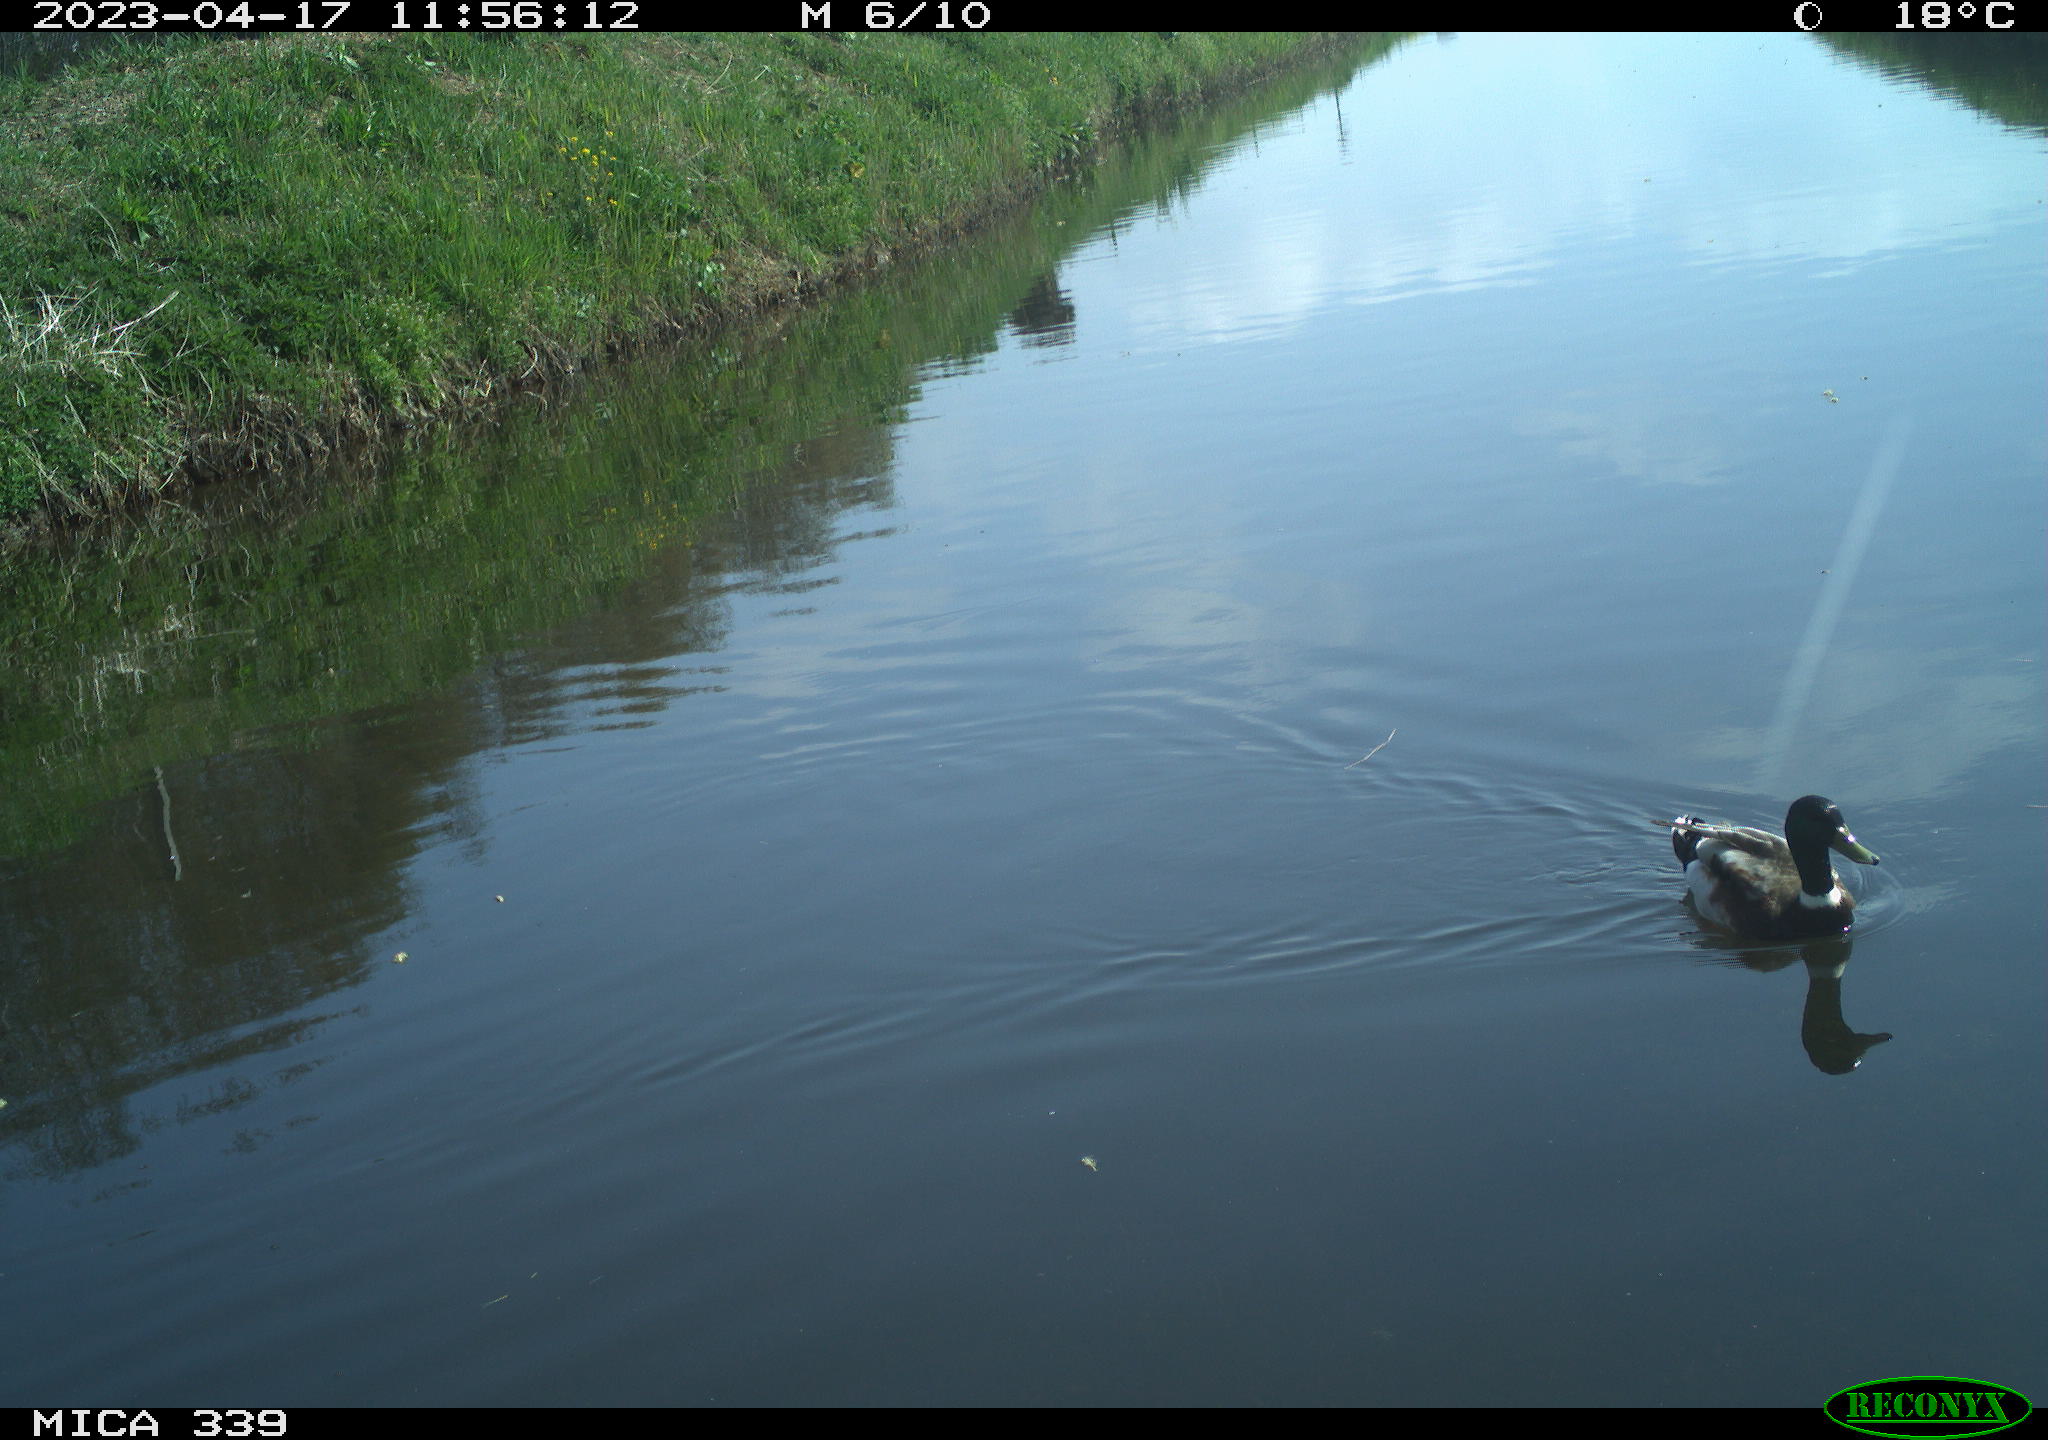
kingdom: Animalia
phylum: Chordata
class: Aves
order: Anseriformes
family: Anatidae
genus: Anas
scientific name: Anas
